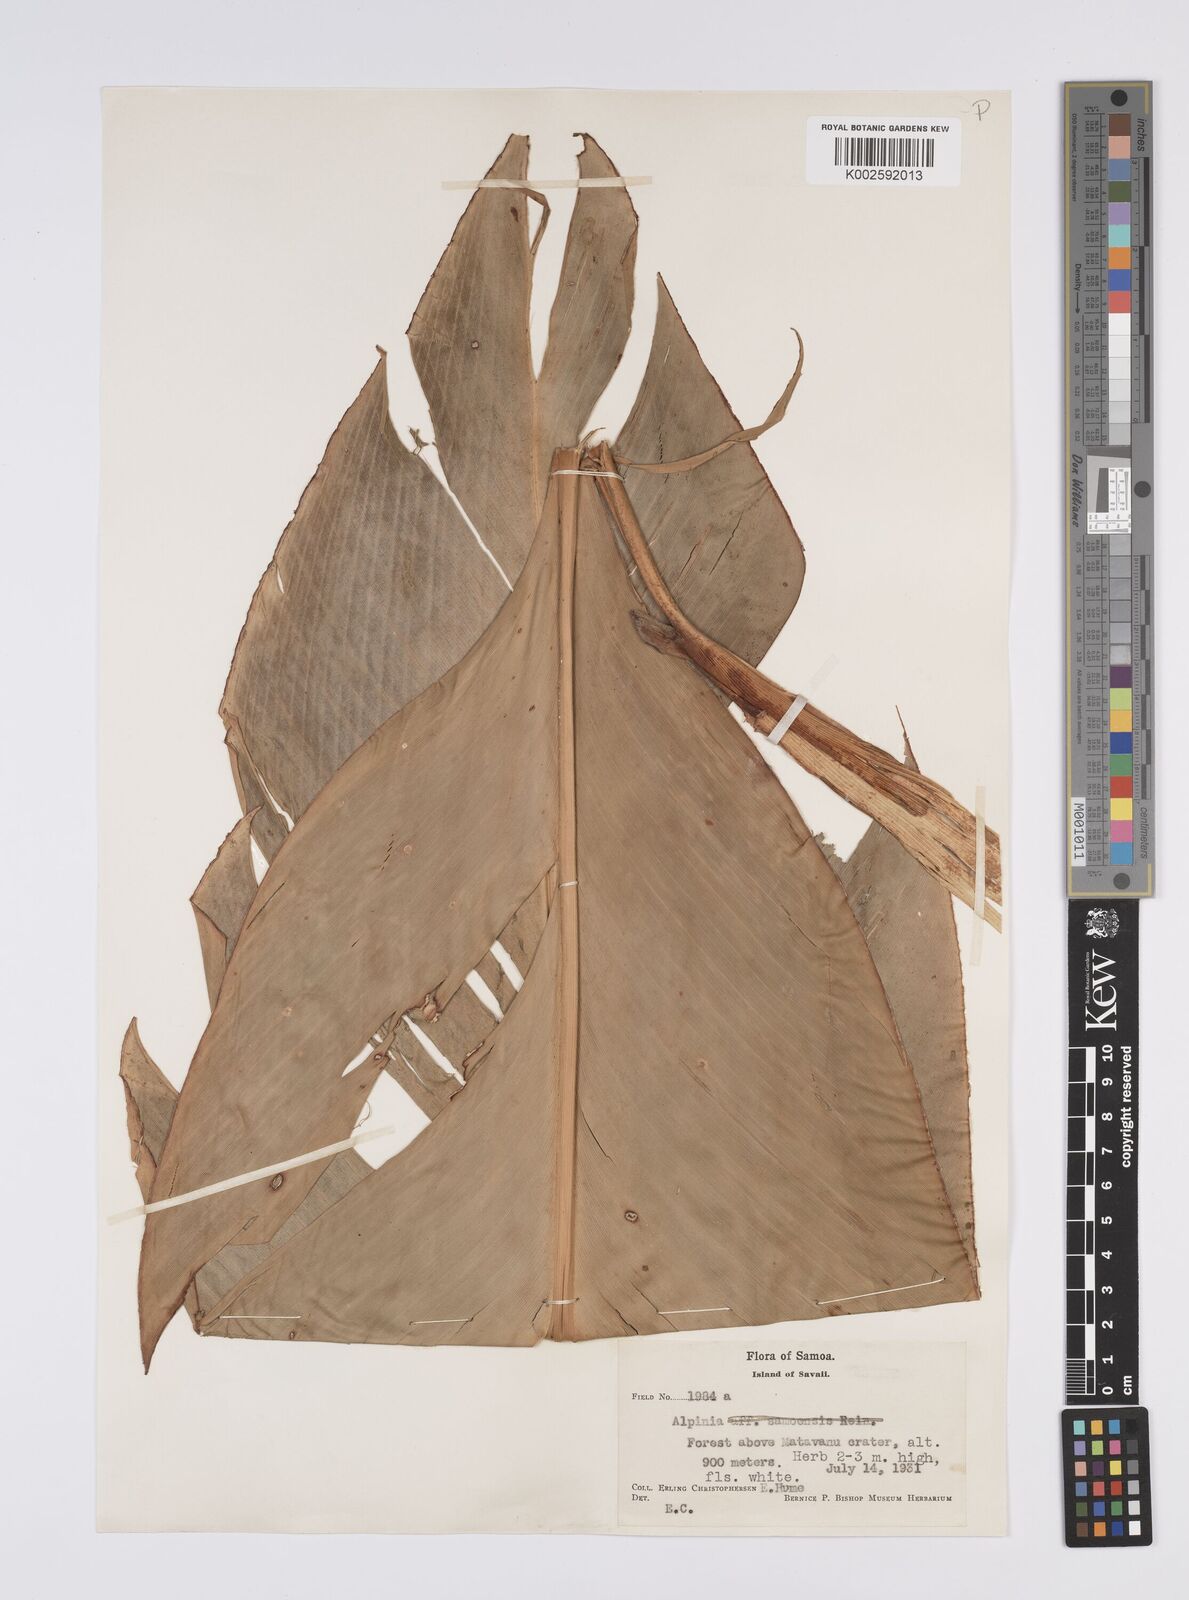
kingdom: Plantae
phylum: Tracheophyta
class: Liliopsida
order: Zingiberales
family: Zingiberaceae
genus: Alpinia
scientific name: Alpinia
